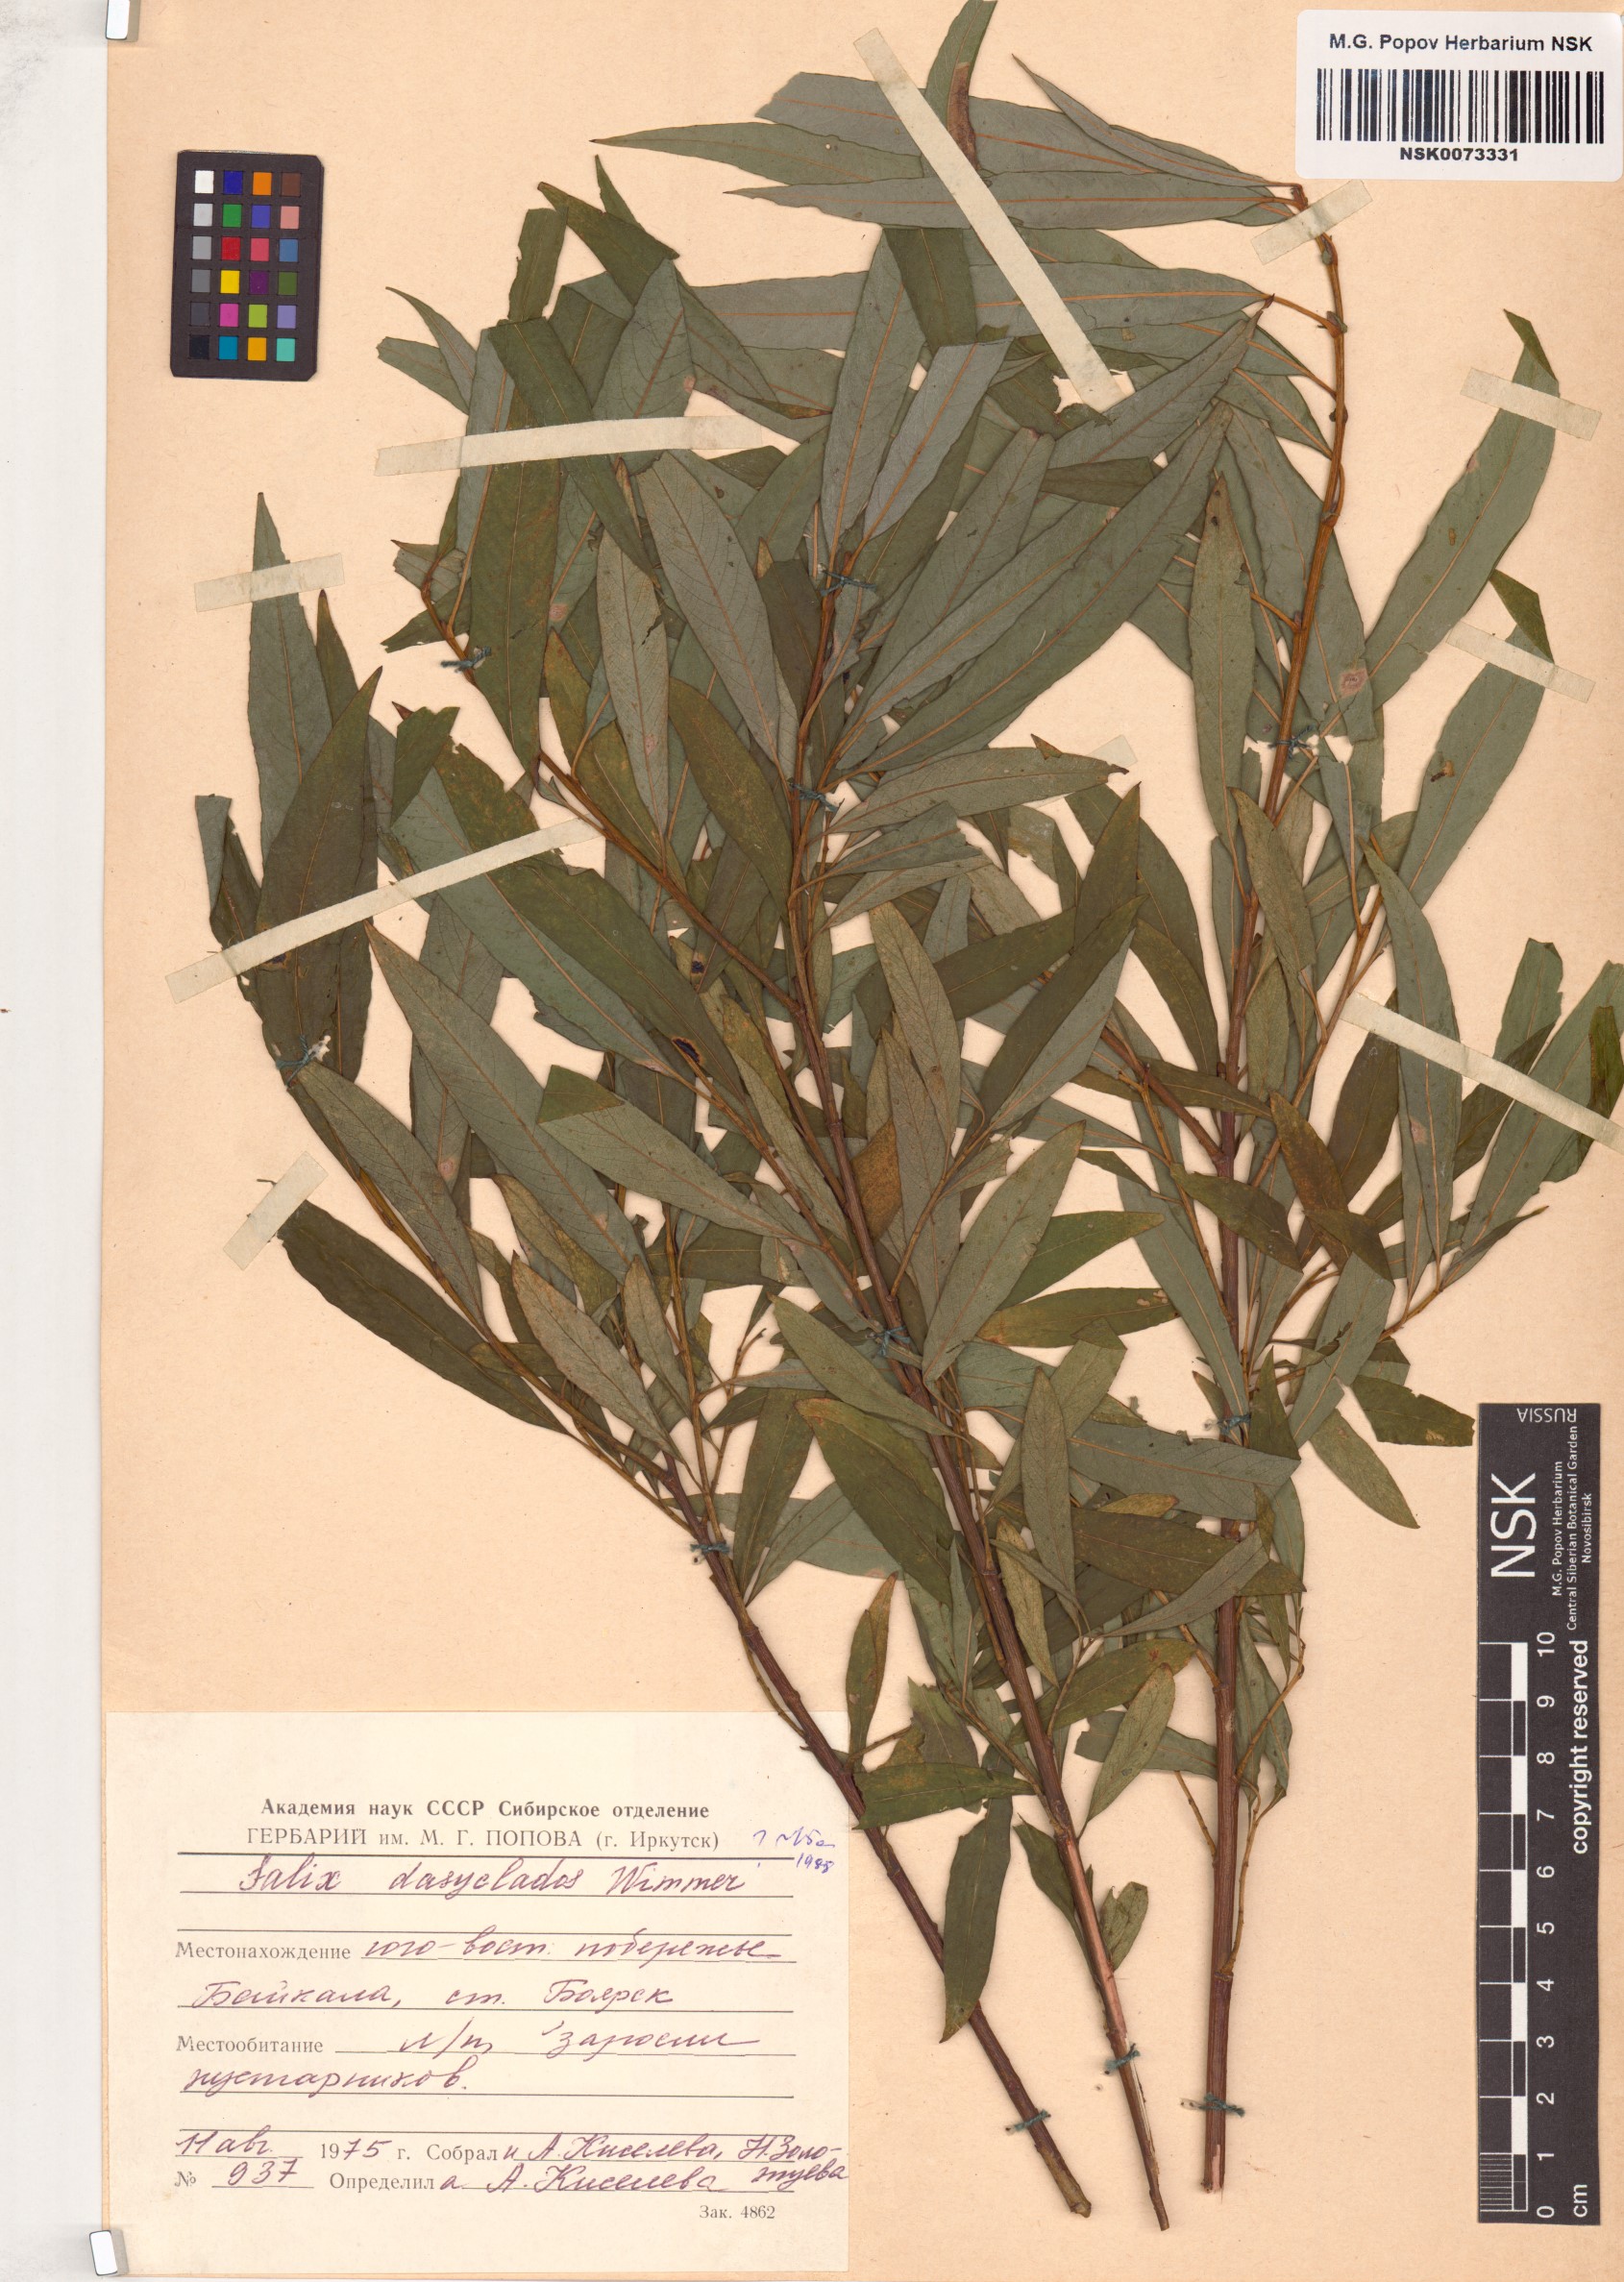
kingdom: Plantae
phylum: Tracheophyta
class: Magnoliopsida
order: Malpighiales
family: Salicaceae
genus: Salix
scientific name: Salix gmelinii
